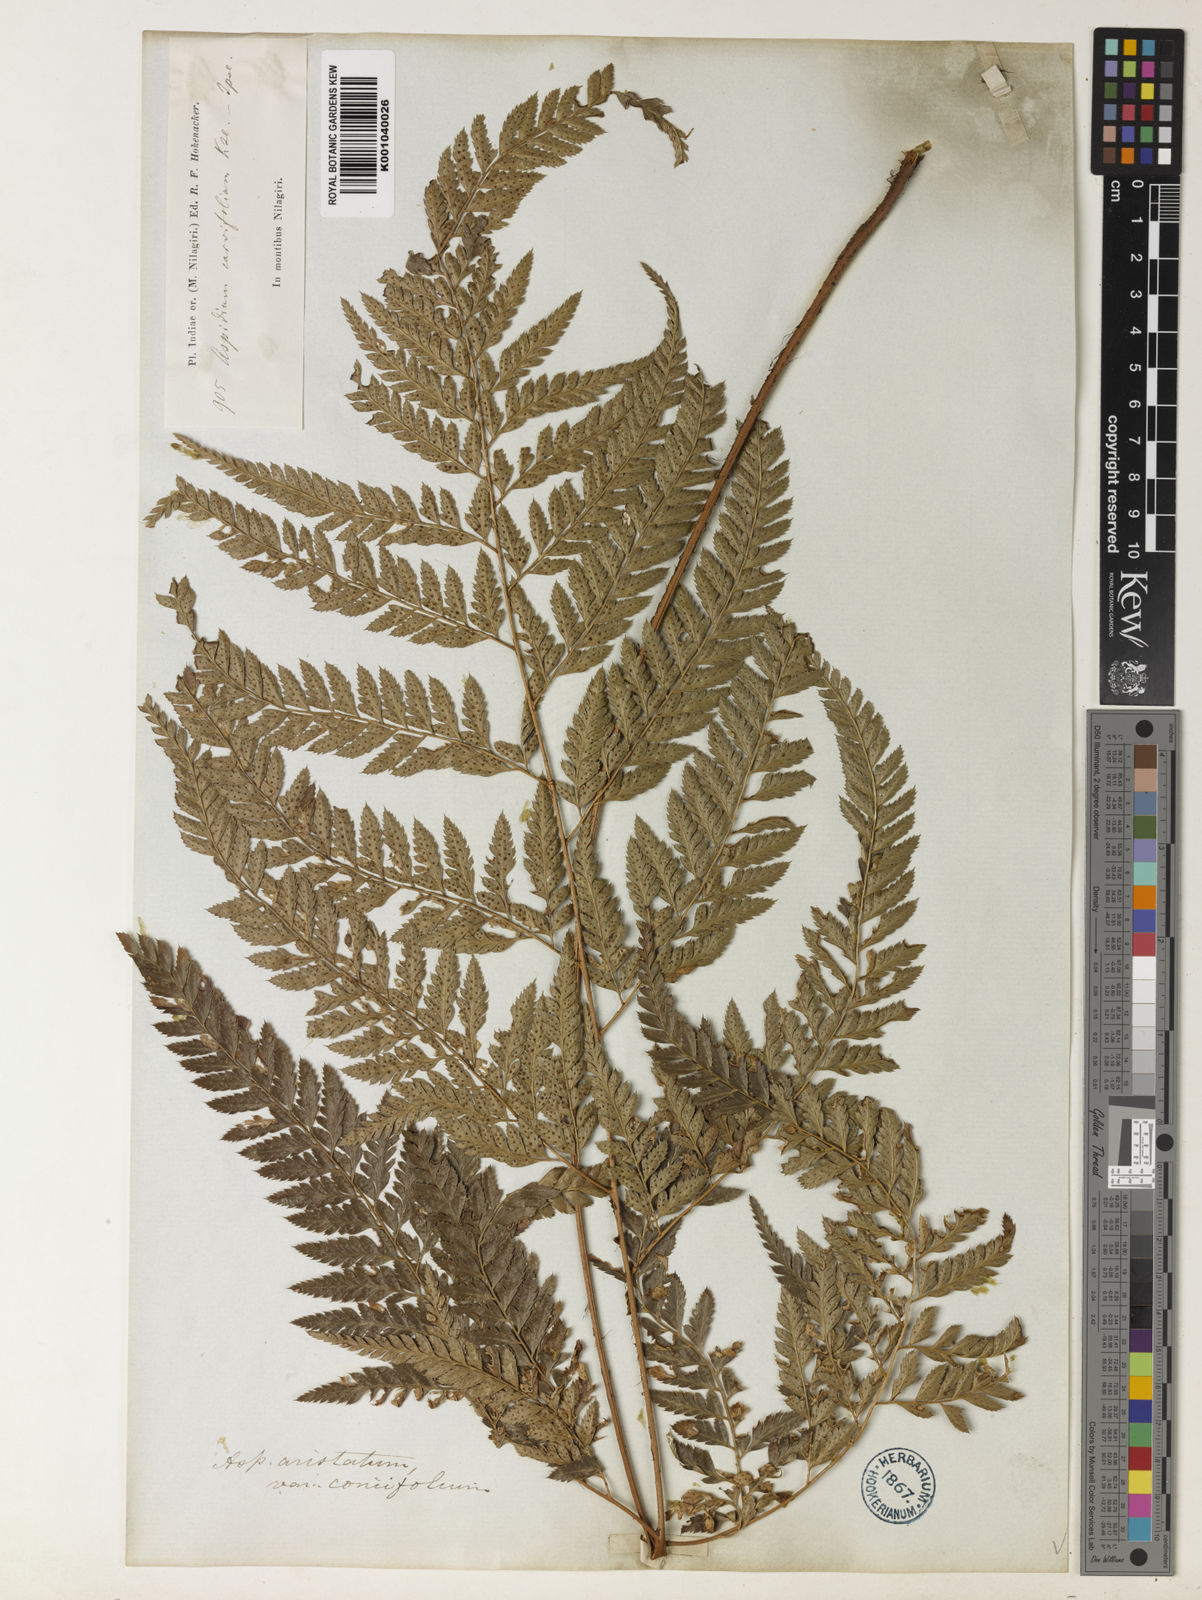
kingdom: Plantae
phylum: Tracheophyta
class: Polypodiopsida
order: Polypodiales
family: Dryopteridaceae
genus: Arachniodes
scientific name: Arachniodes aristata
